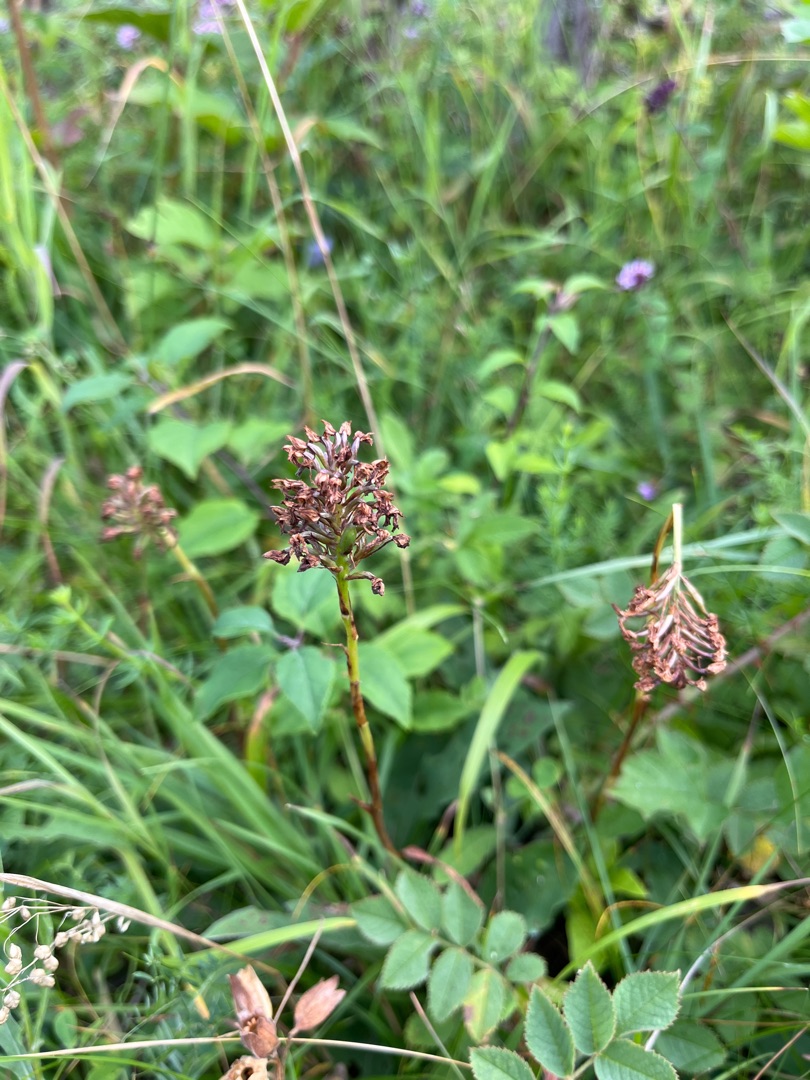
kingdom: Plantae
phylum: Tracheophyta
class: Liliopsida
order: Asparagales
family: Orchidaceae
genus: Anacamptis
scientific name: Anacamptis pyramidalis
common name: Horndrager
